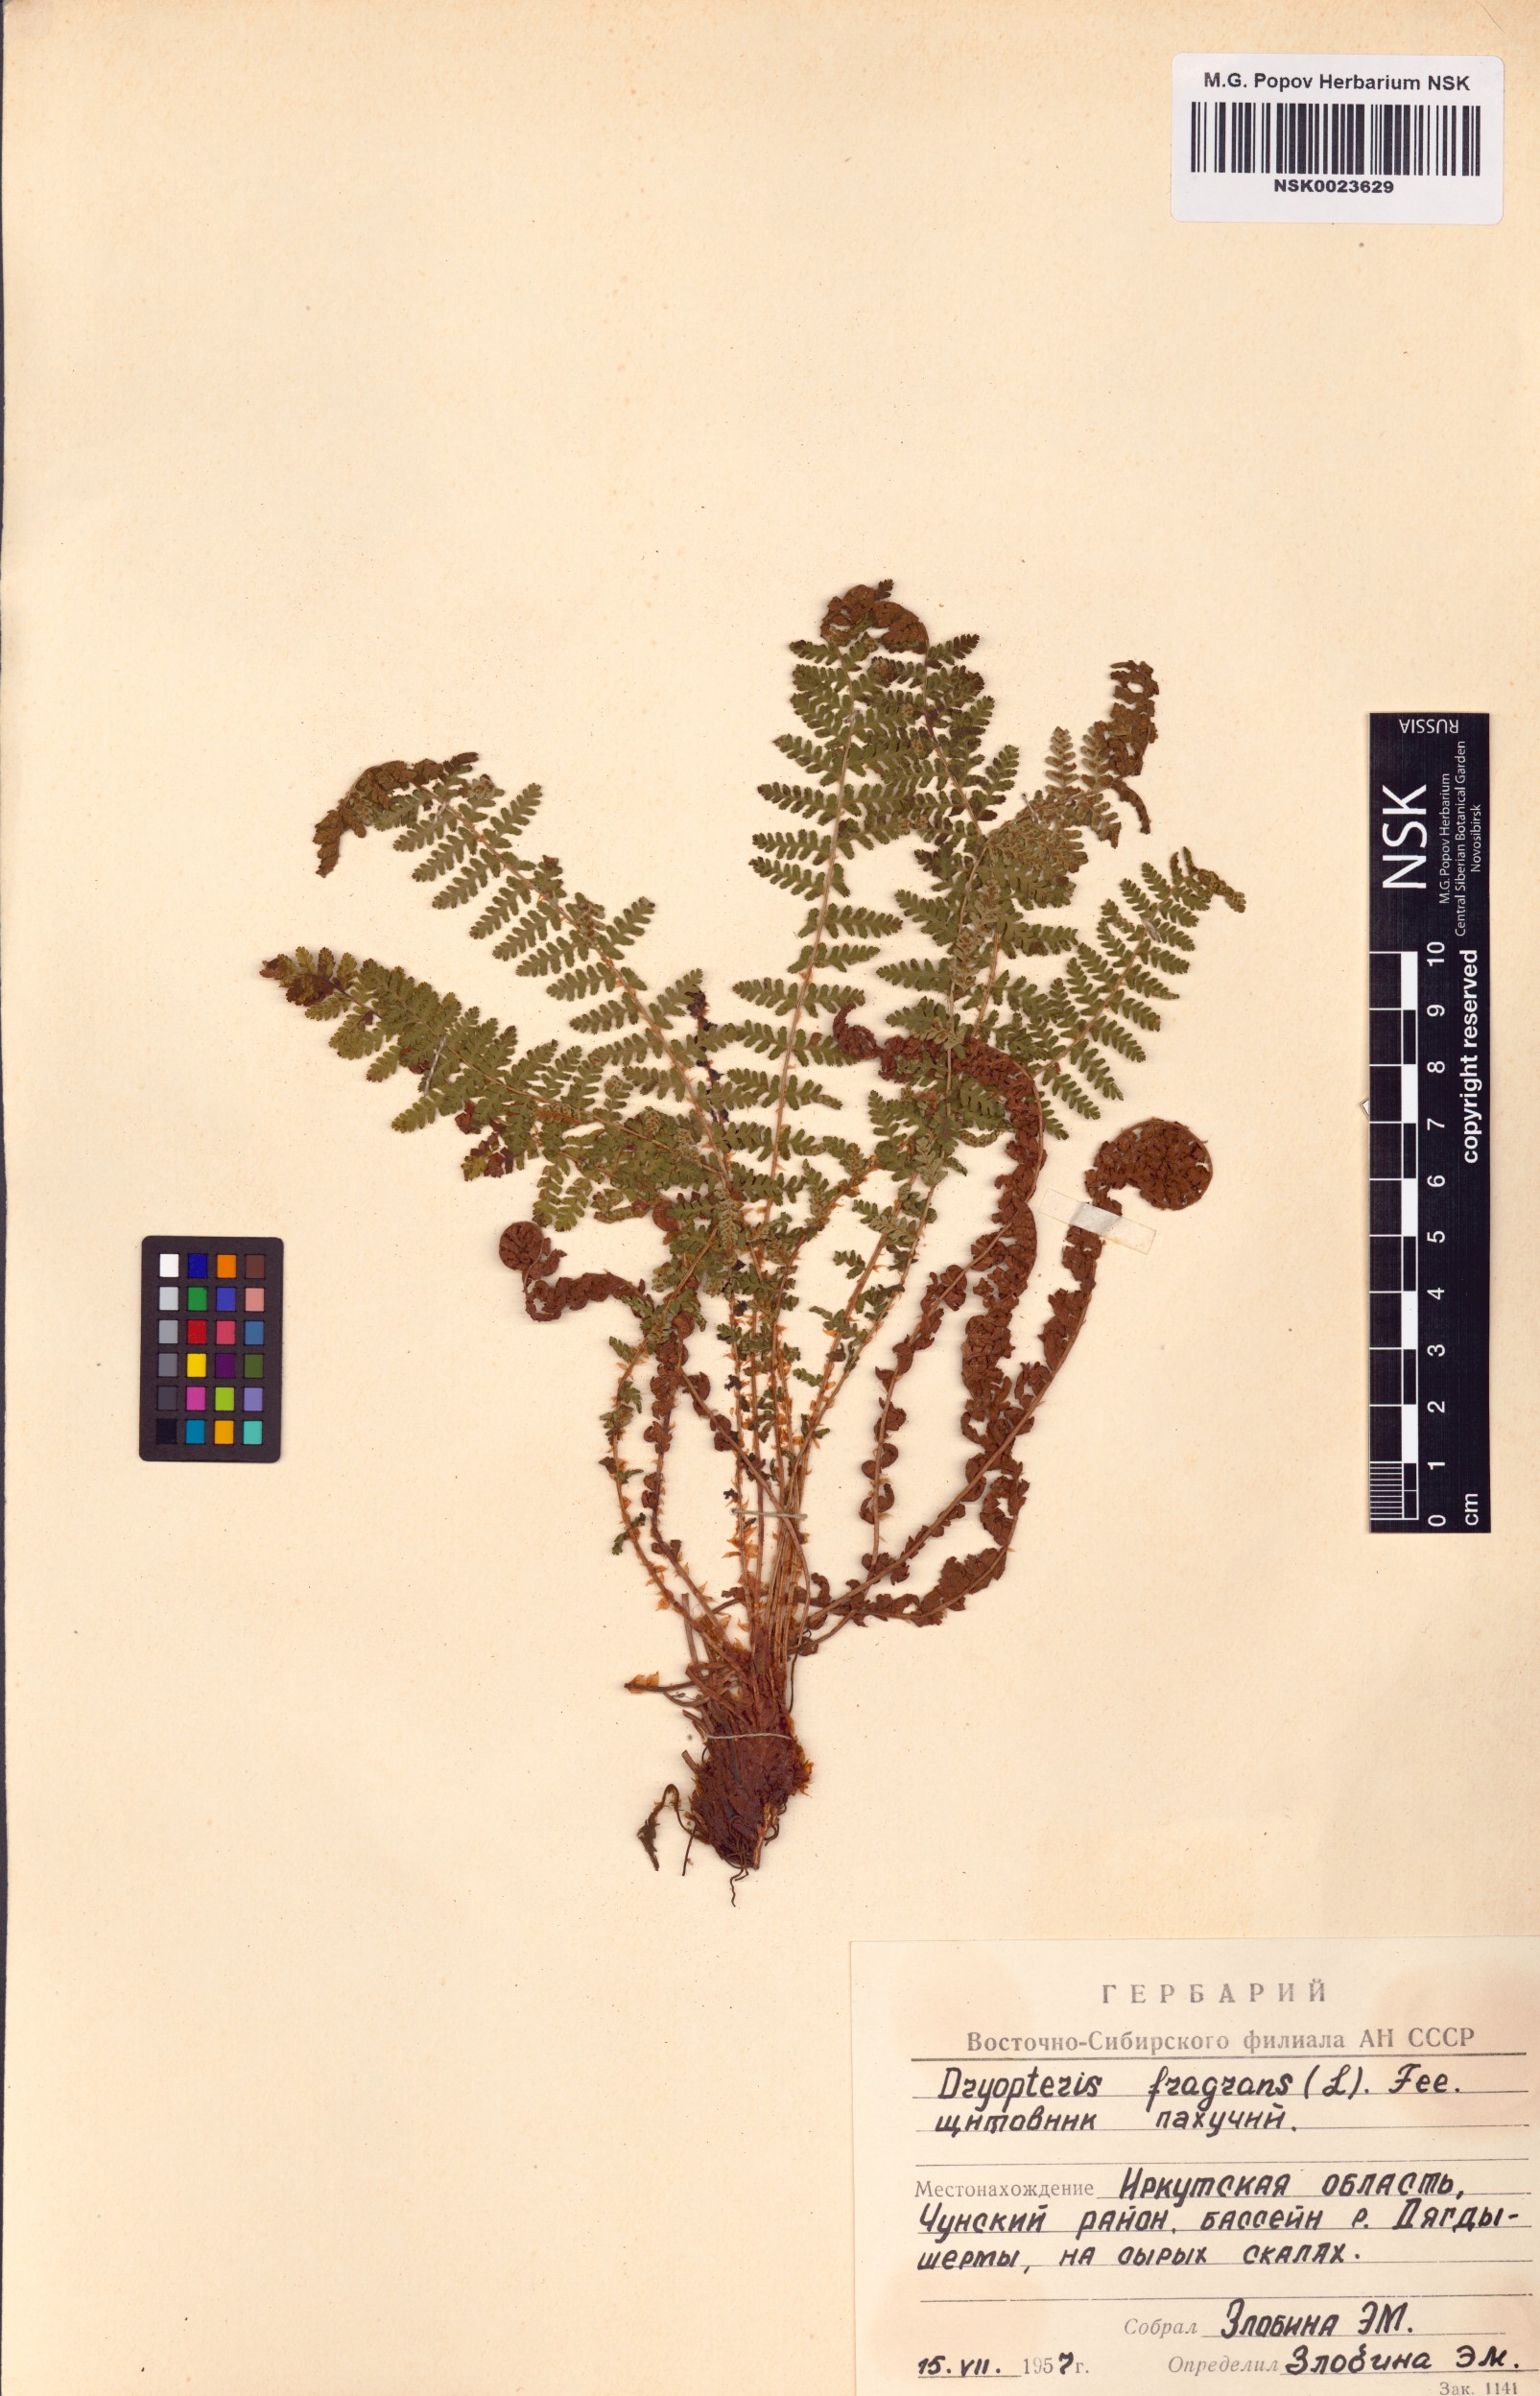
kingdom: Plantae
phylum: Tracheophyta
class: Polypodiopsida
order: Polypodiales
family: Dryopteridaceae
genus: Dryopteris
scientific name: Dryopteris fragrans
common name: Fragrant wood fern
